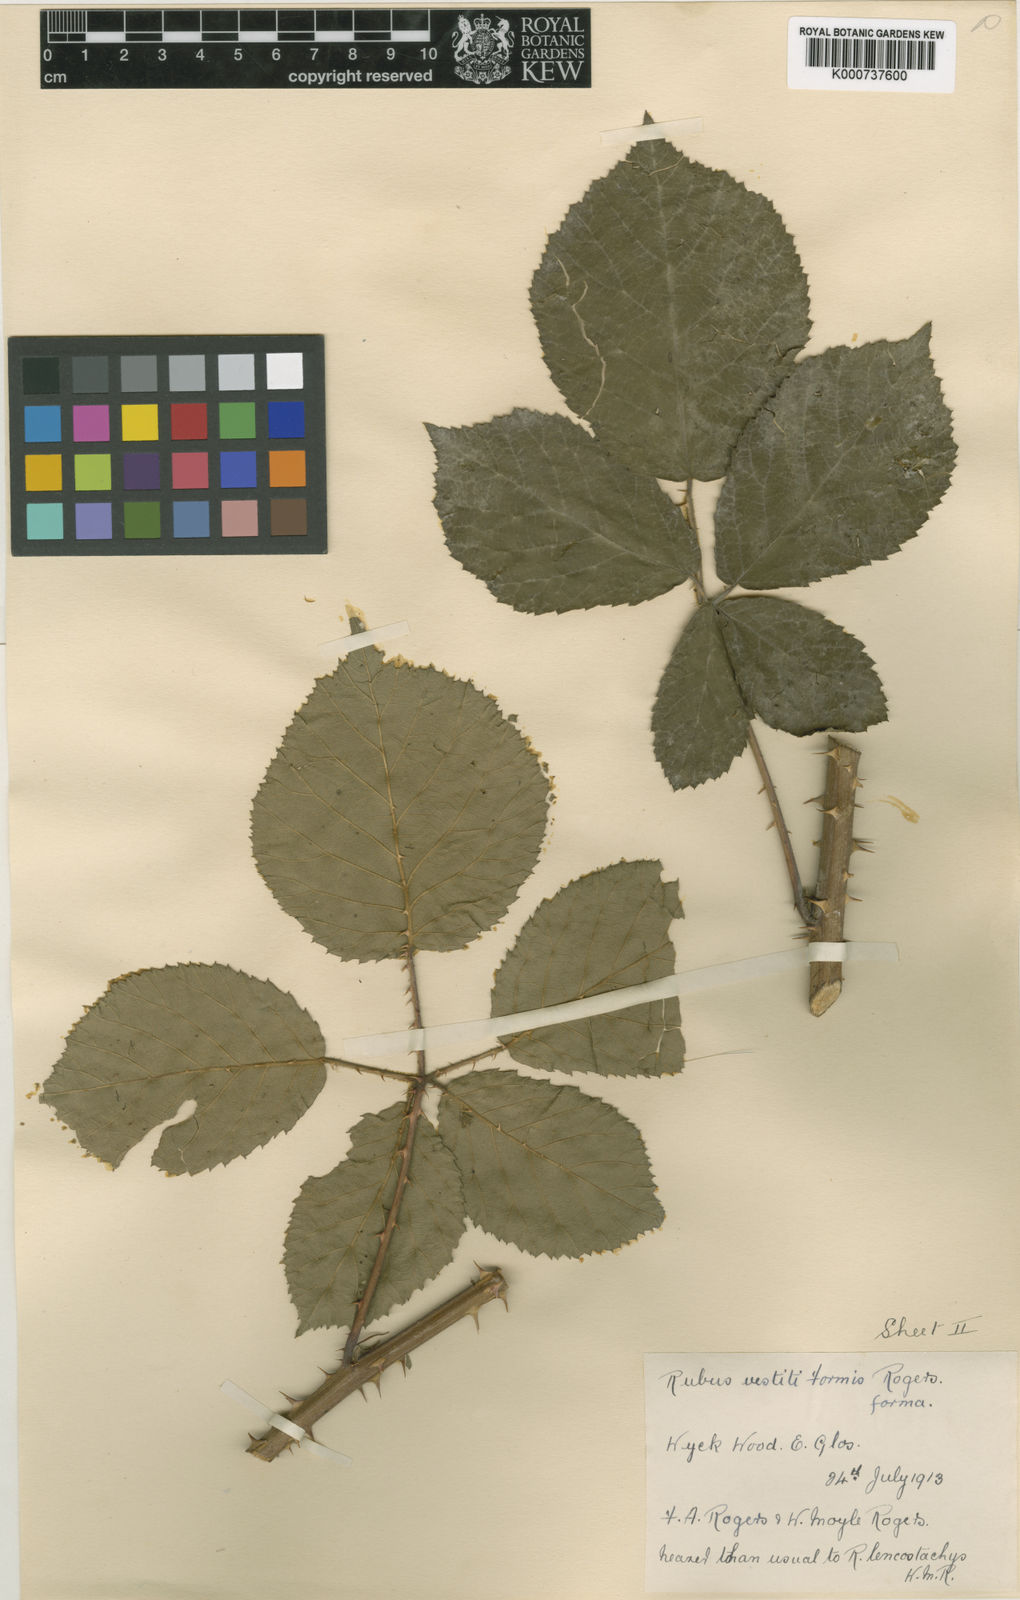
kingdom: Plantae
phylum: Tracheophyta
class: Magnoliopsida
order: Rosales
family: Rosaceae
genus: Rubus
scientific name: Rubus
